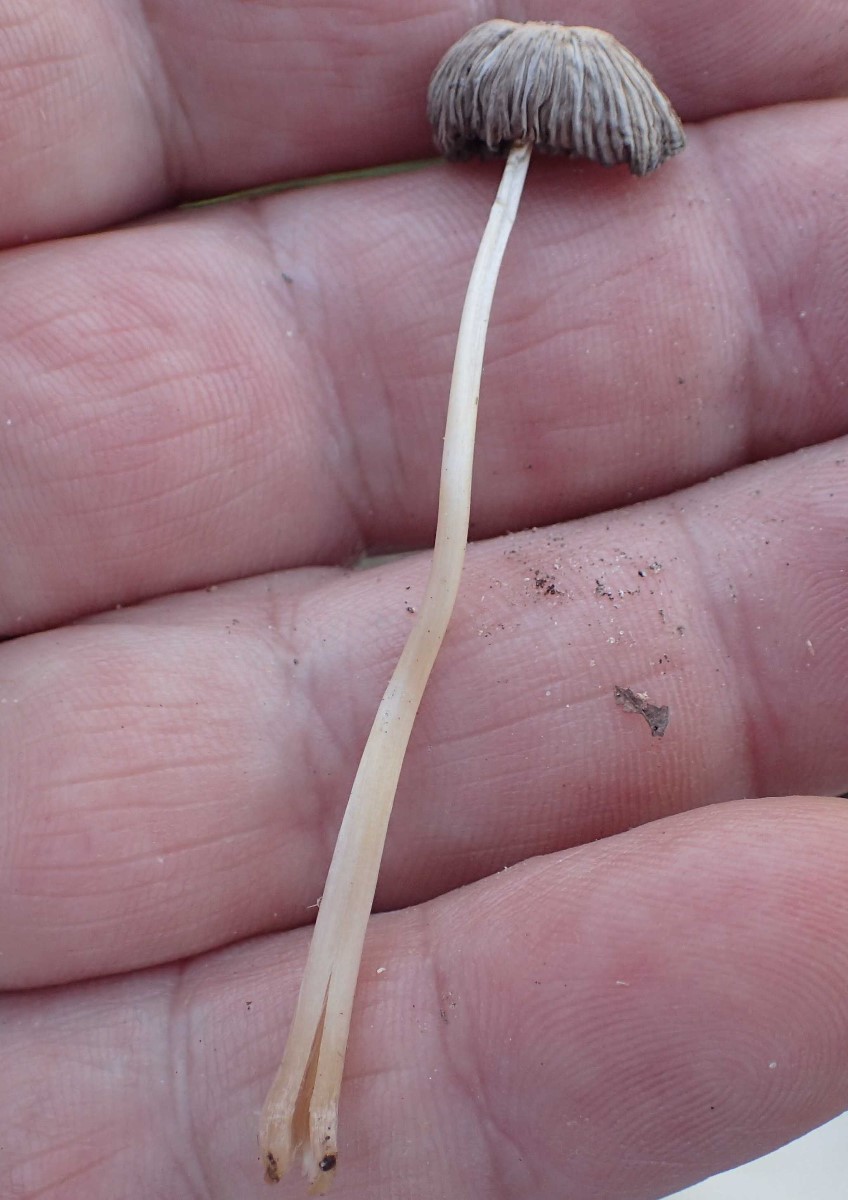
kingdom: Fungi
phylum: Basidiomycota
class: Agaricomycetes
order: Agaricales
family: Mycenaceae
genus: Mycena
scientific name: Mycena epipterygia
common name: gulstokket huesvamp
